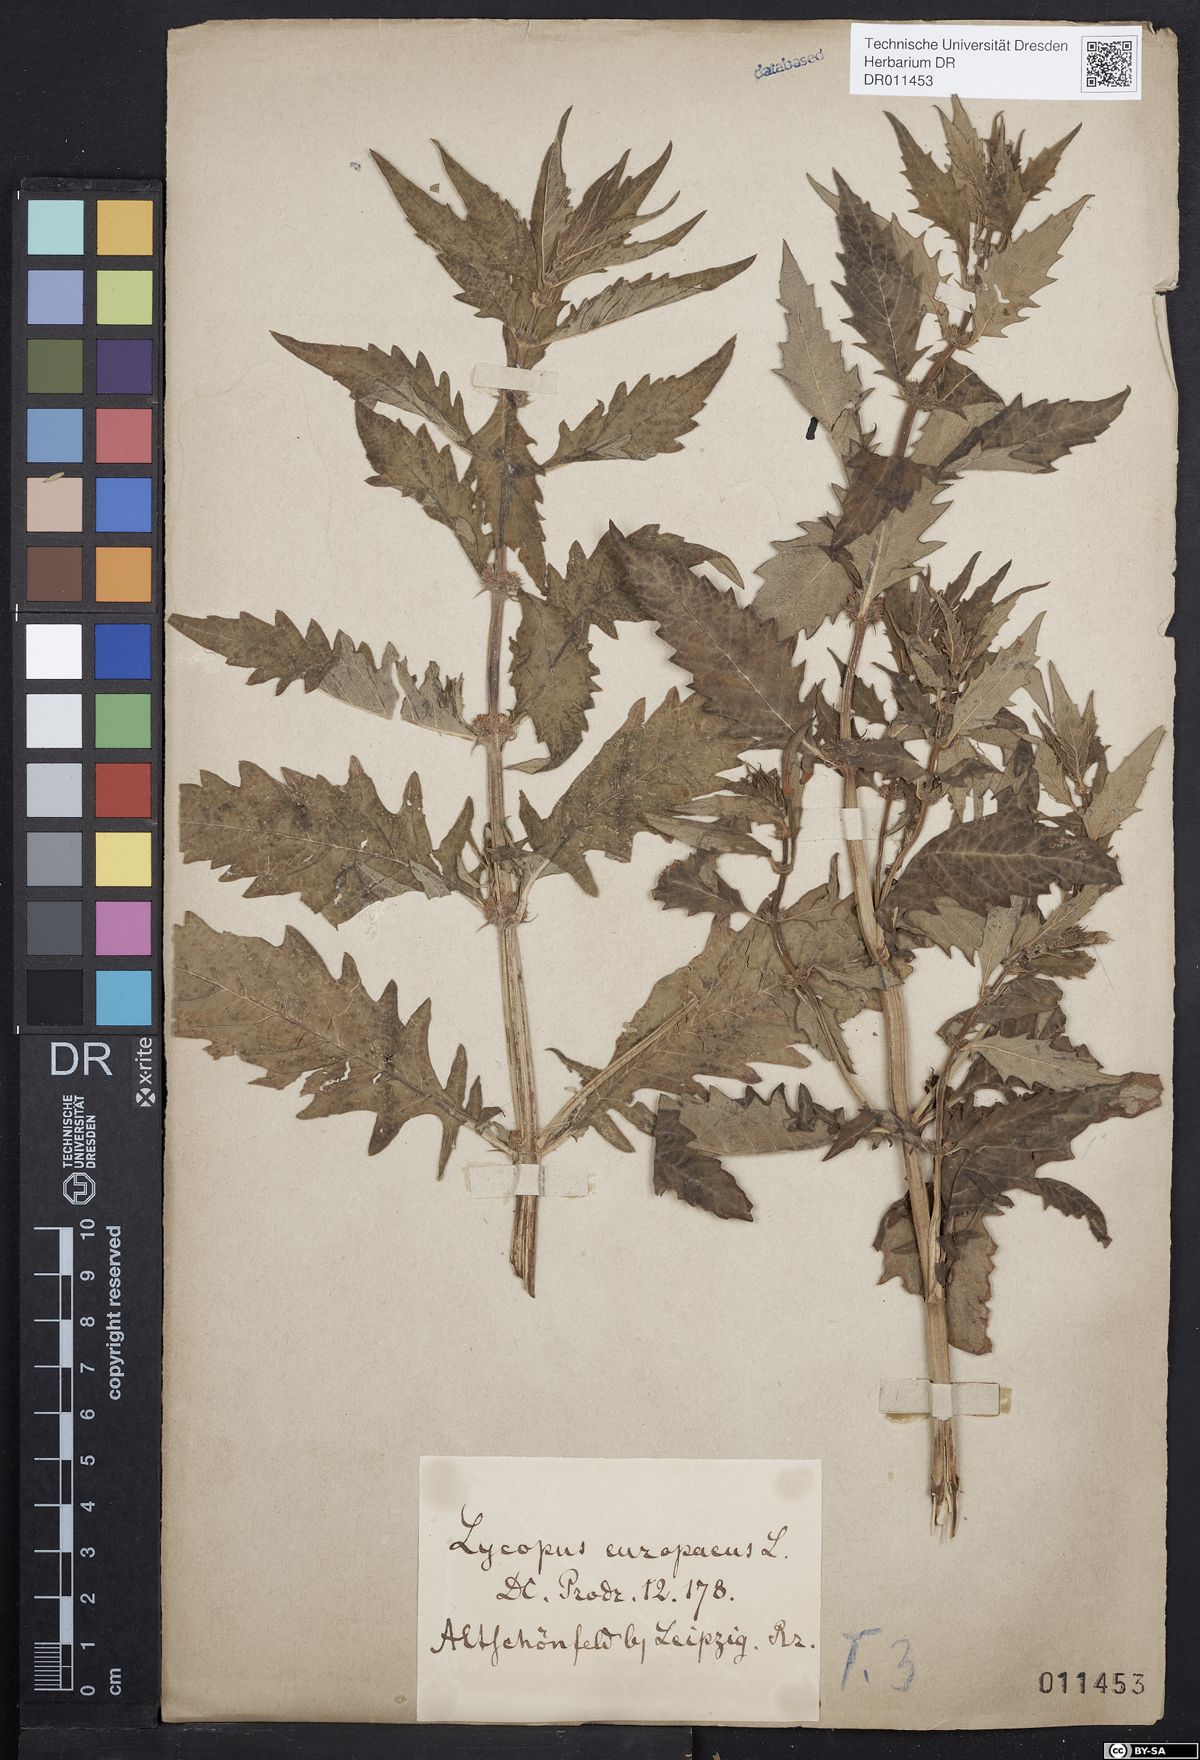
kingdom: Plantae
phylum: Tracheophyta
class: Magnoliopsida
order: Lamiales
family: Lamiaceae
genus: Lycopus
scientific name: Lycopus europaeus
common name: European bugleweed
